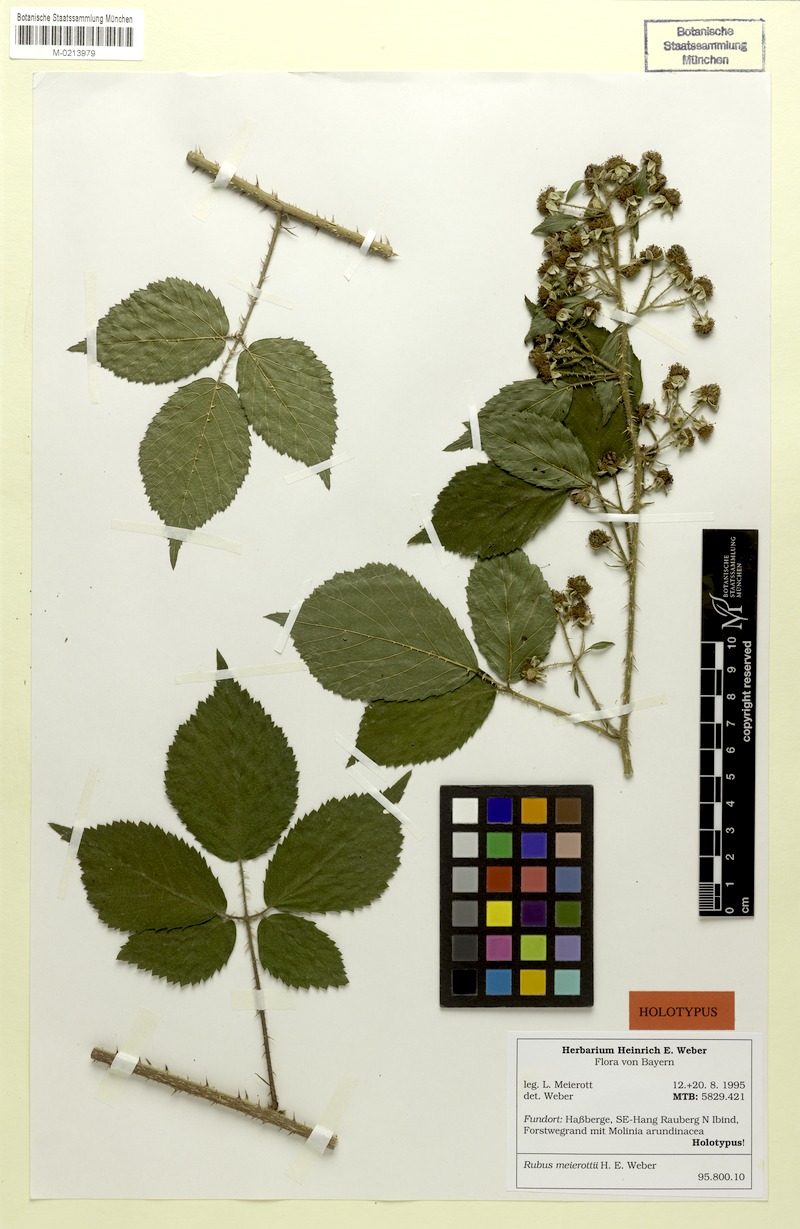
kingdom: Plantae
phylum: Tracheophyta
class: Magnoliopsida
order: Rosales
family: Rosaceae
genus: Rubus
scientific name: Rubus meierottii
